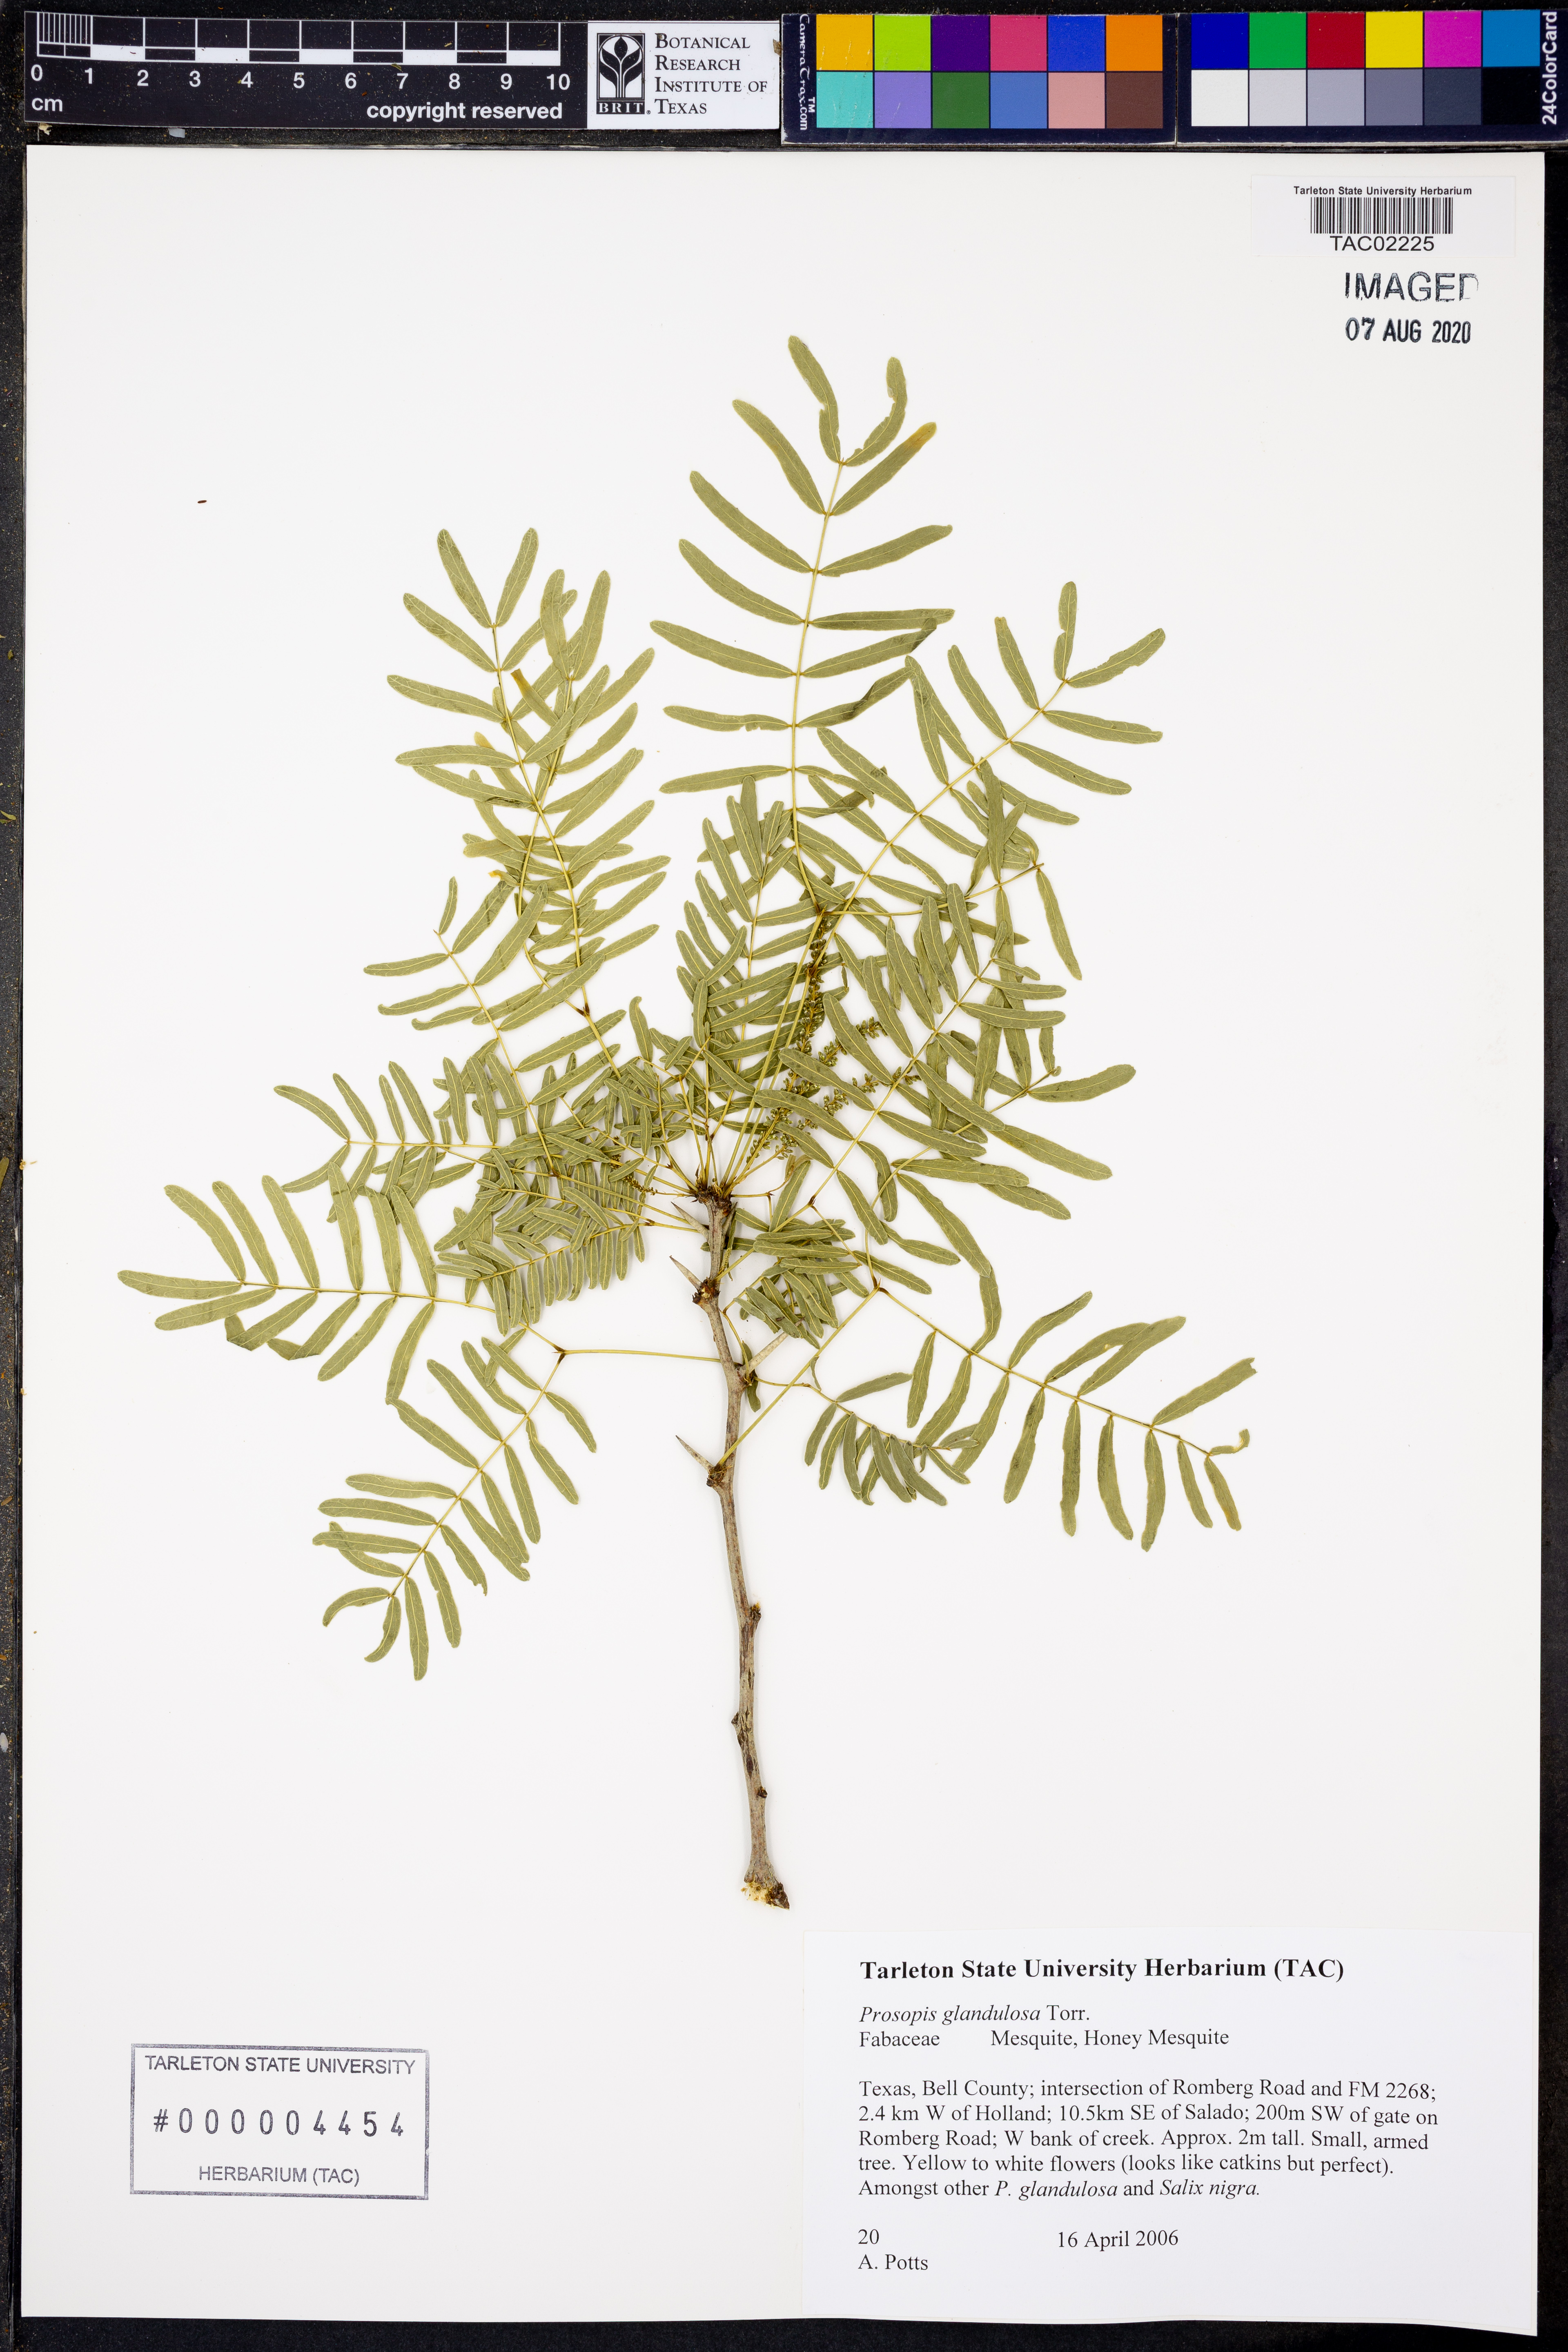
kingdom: Plantae
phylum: Tracheophyta
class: Magnoliopsida
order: Fabales
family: Fabaceae
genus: Prosopis
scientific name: Prosopis glandulosa
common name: Honey mesquite
